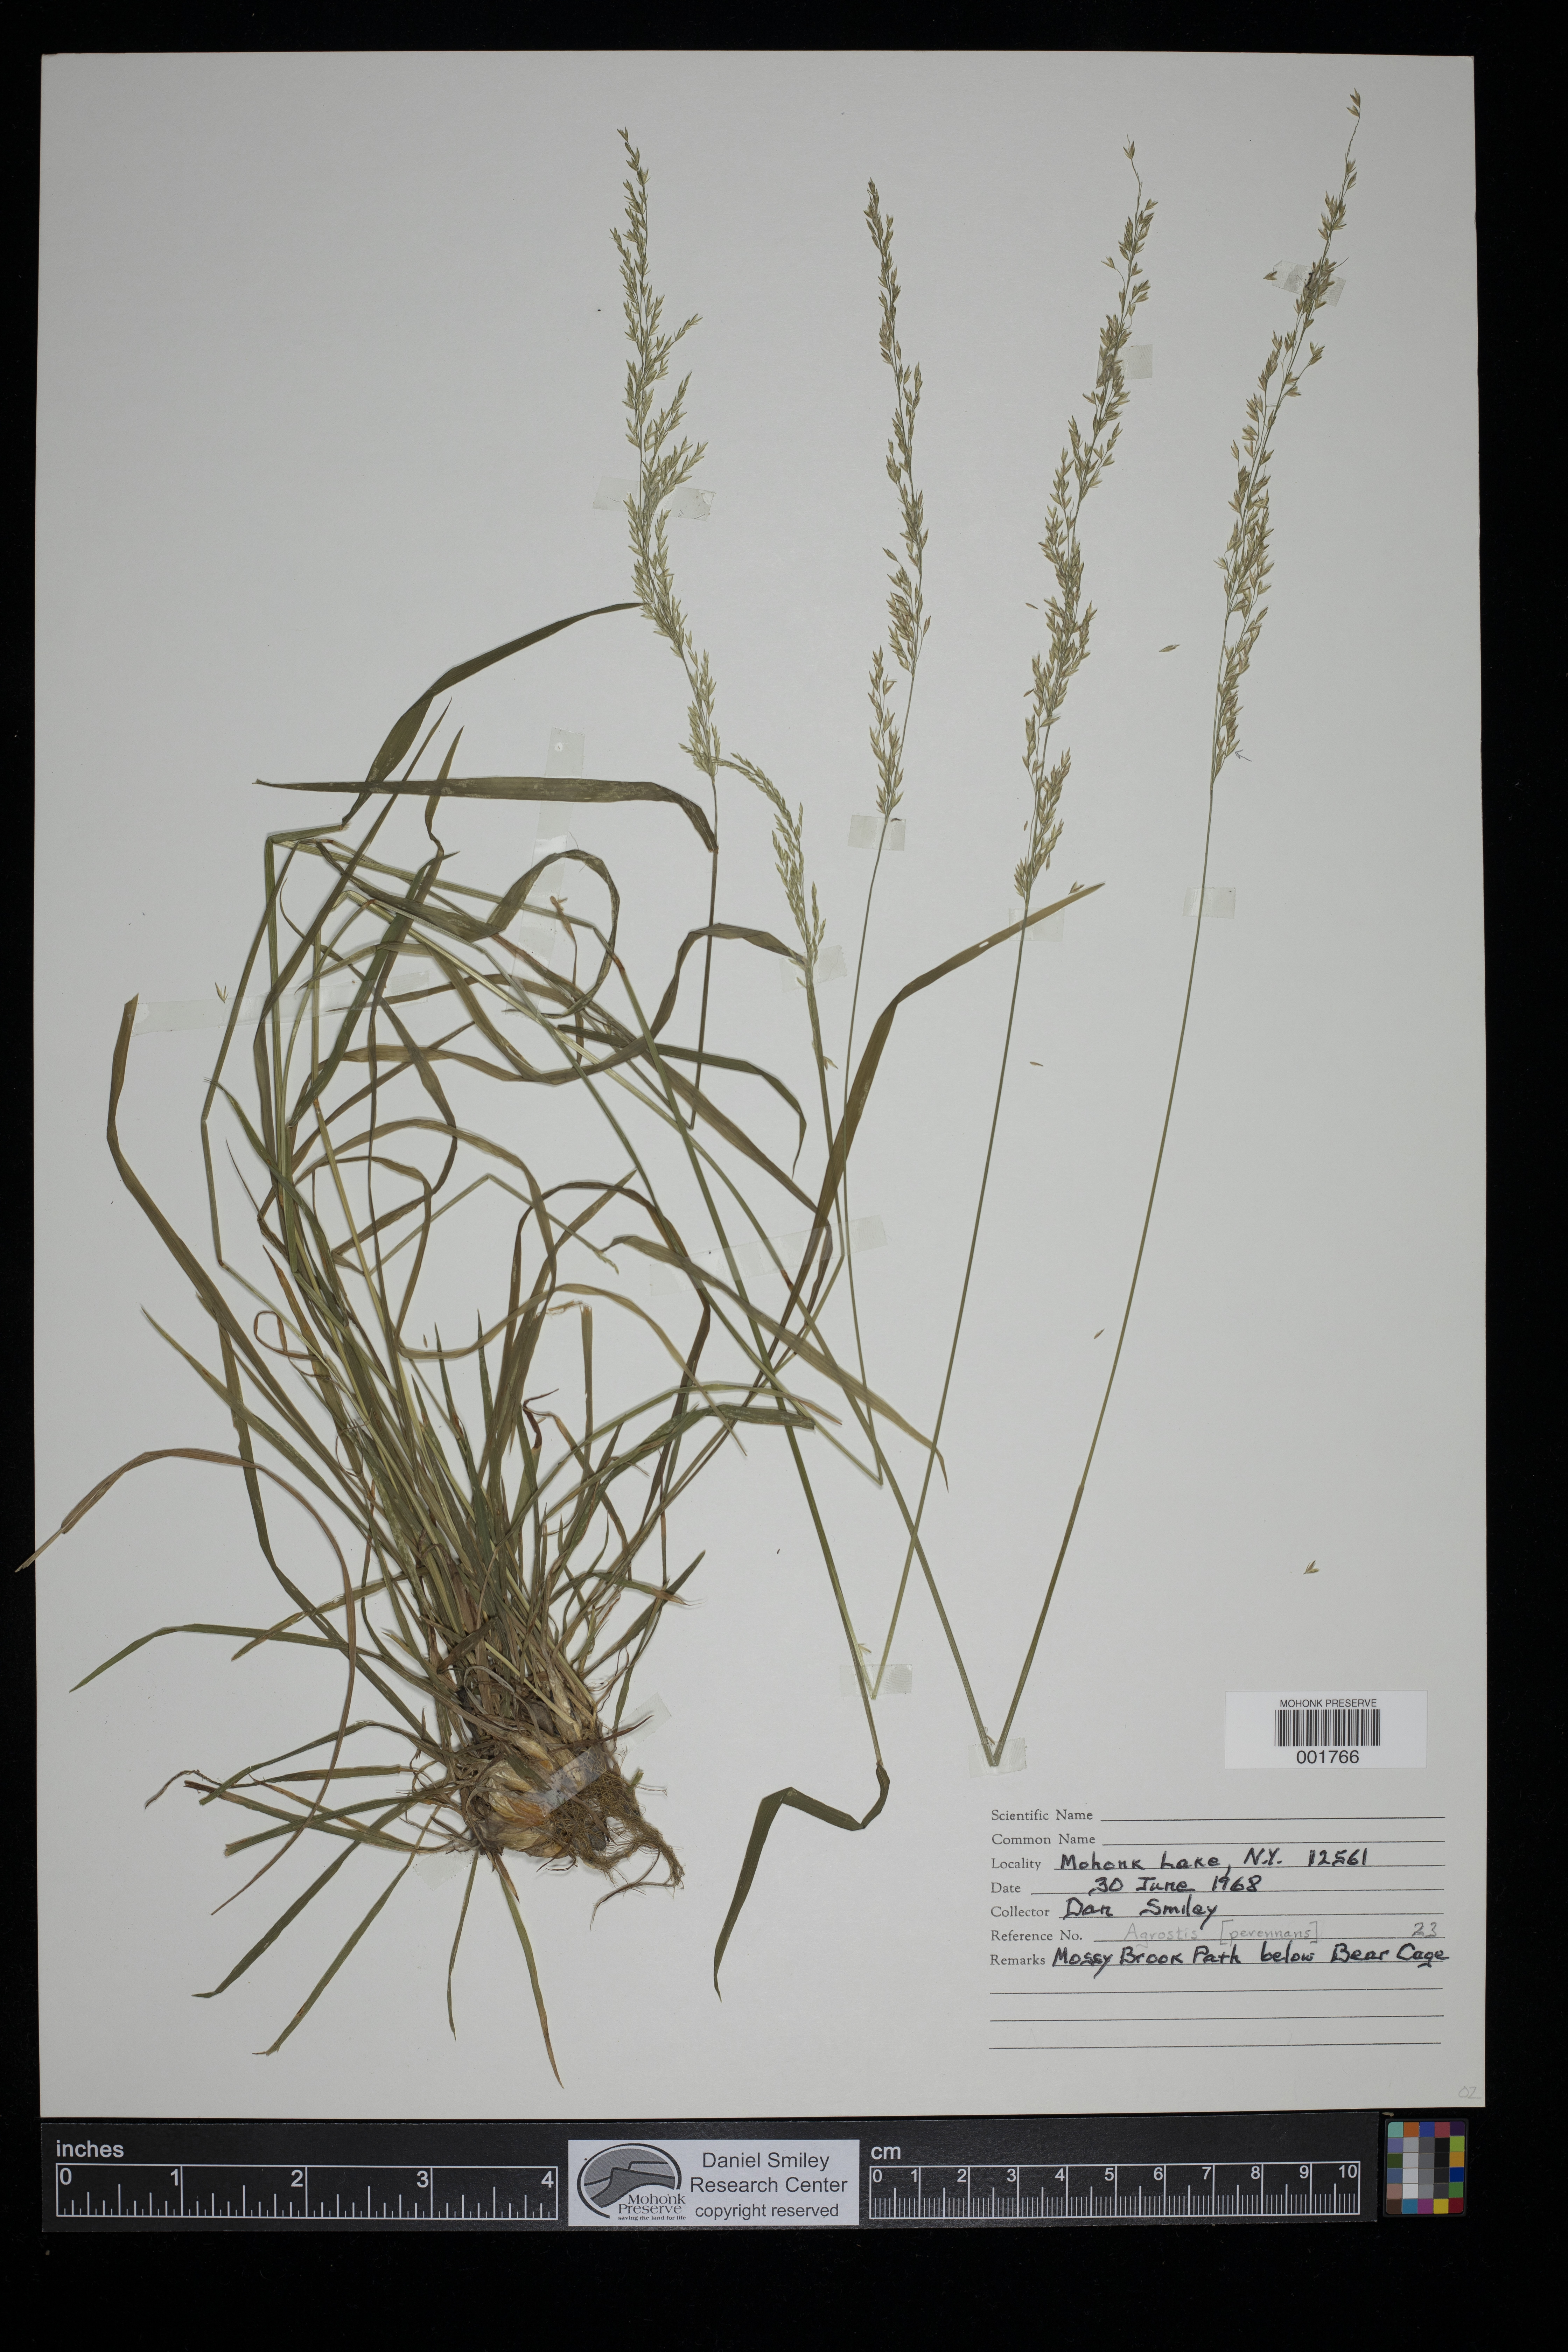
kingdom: Plantae
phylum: Tracheophyta
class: Liliopsida
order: Poales
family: Poaceae
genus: Agrostis
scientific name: Agrostis perennans
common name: Autumn bent
